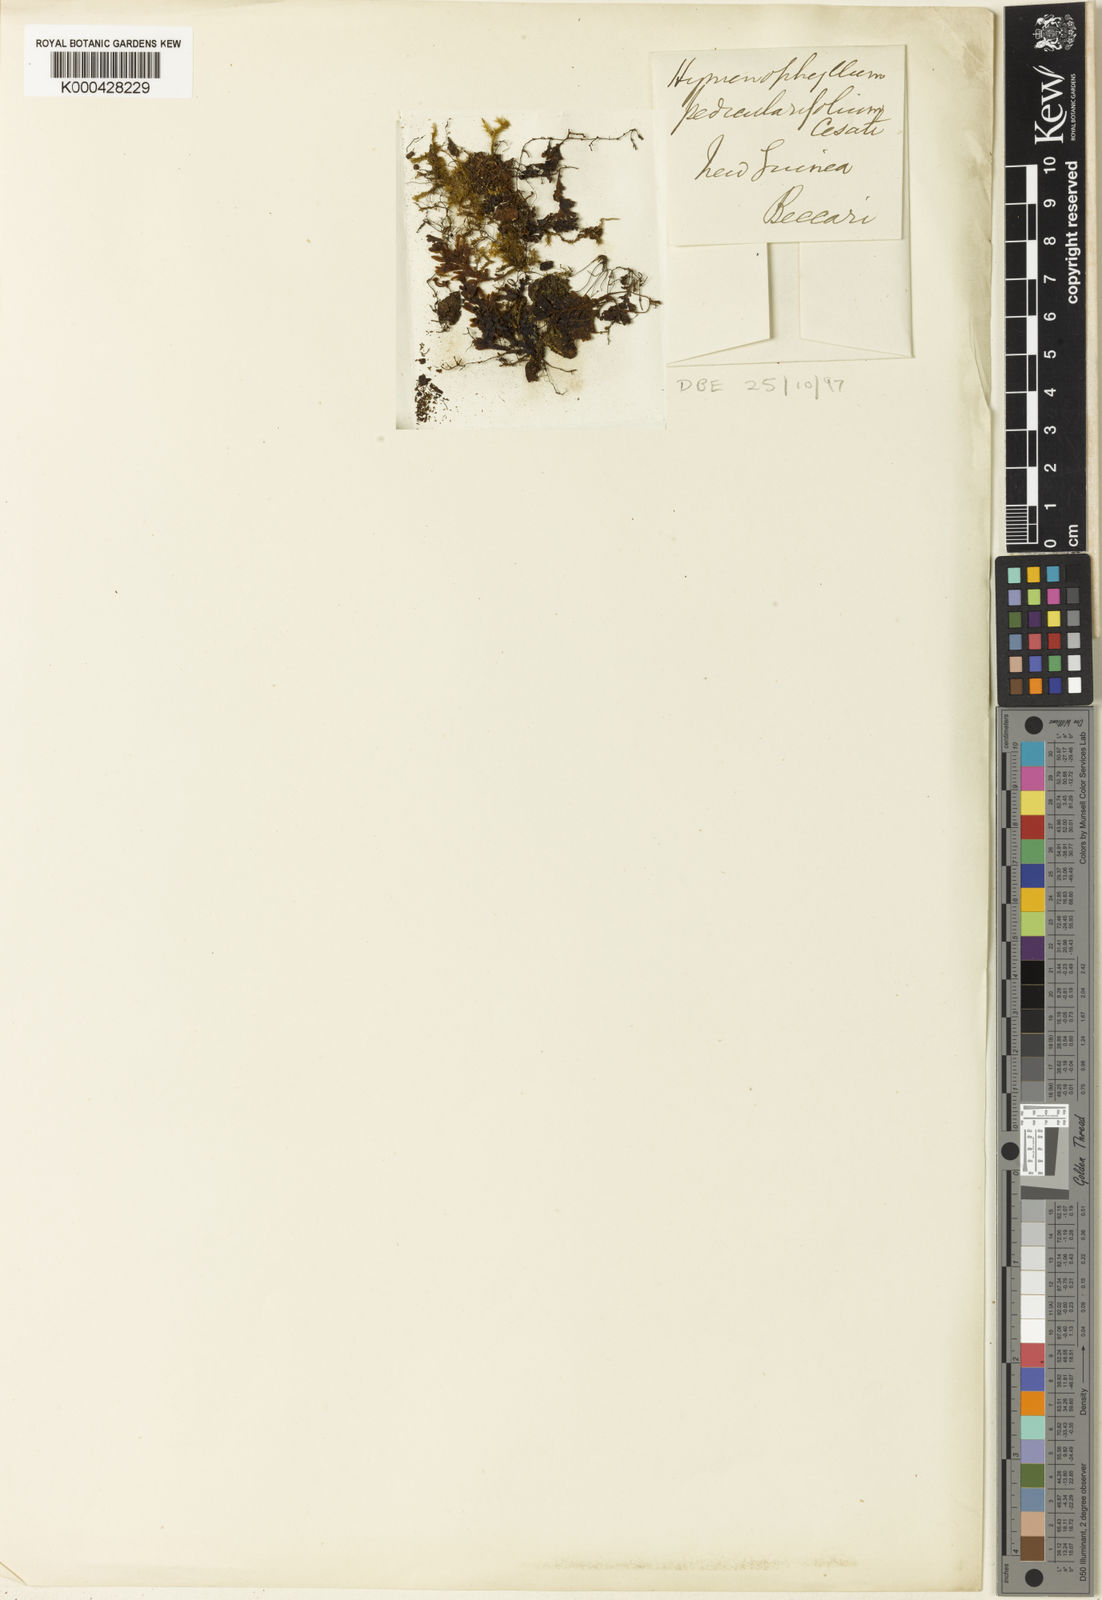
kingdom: Plantae
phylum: Tracheophyta
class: Polypodiopsida
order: Hymenophyllales
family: Hymenophyllaceae
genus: Hymenophyllum
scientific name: Hymenophyllum pachydermicum
